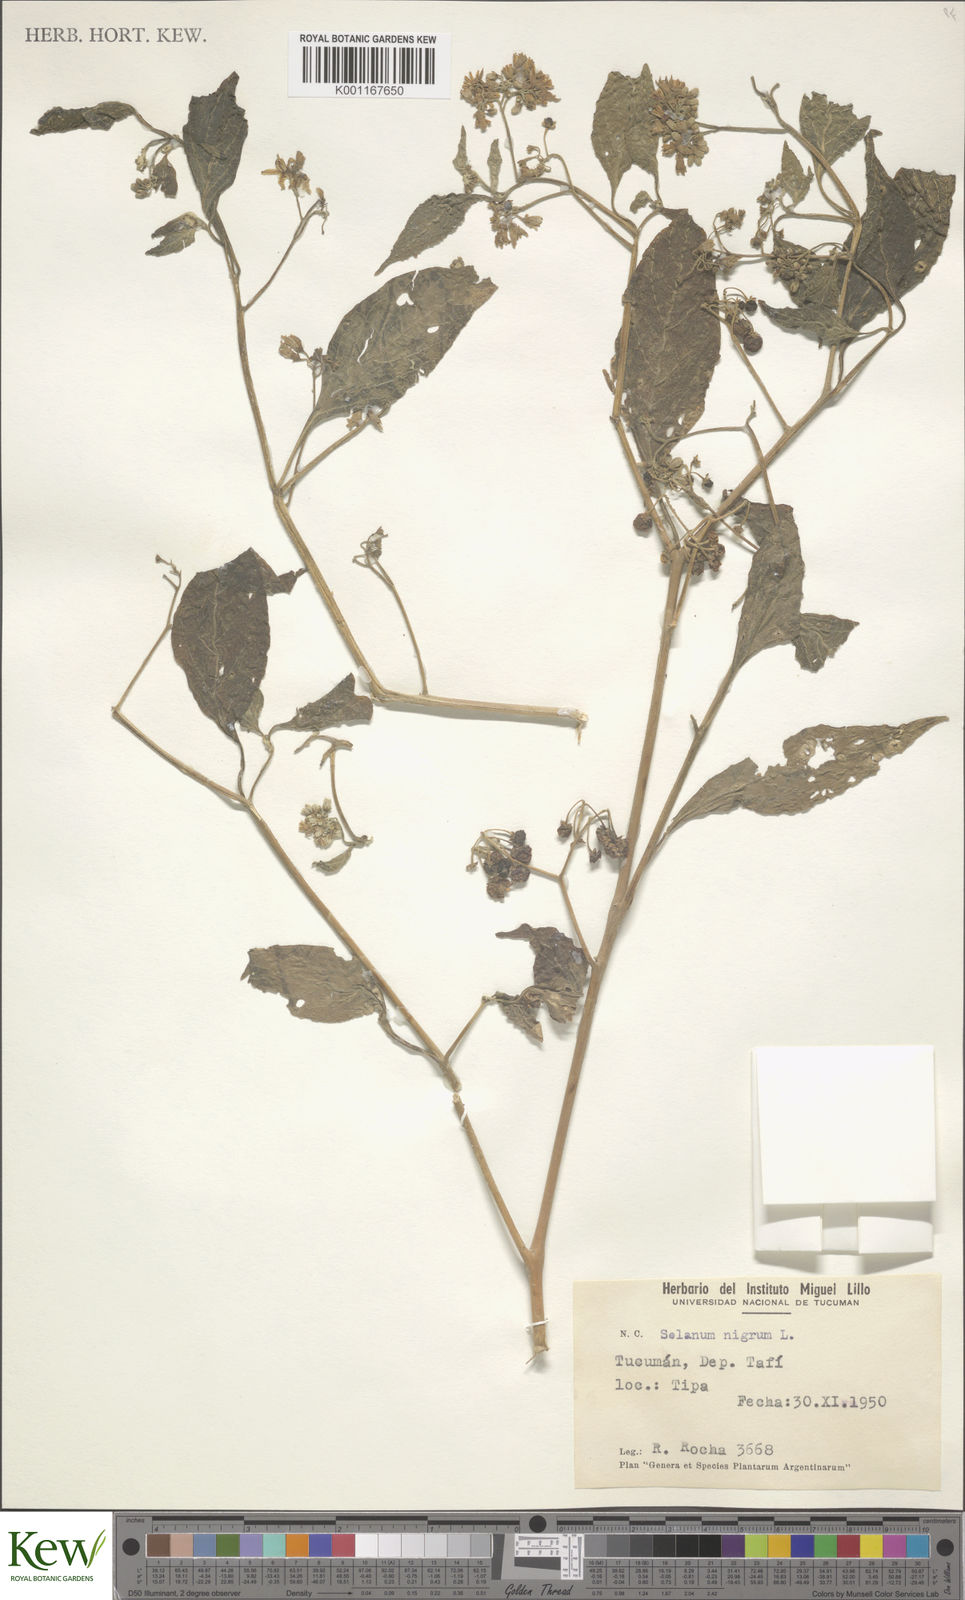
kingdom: Plantae
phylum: Tracheophyta
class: Magnoliopsida
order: Solanales
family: Solanaceae
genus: Solanum
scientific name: Solanum aloysiifolium
